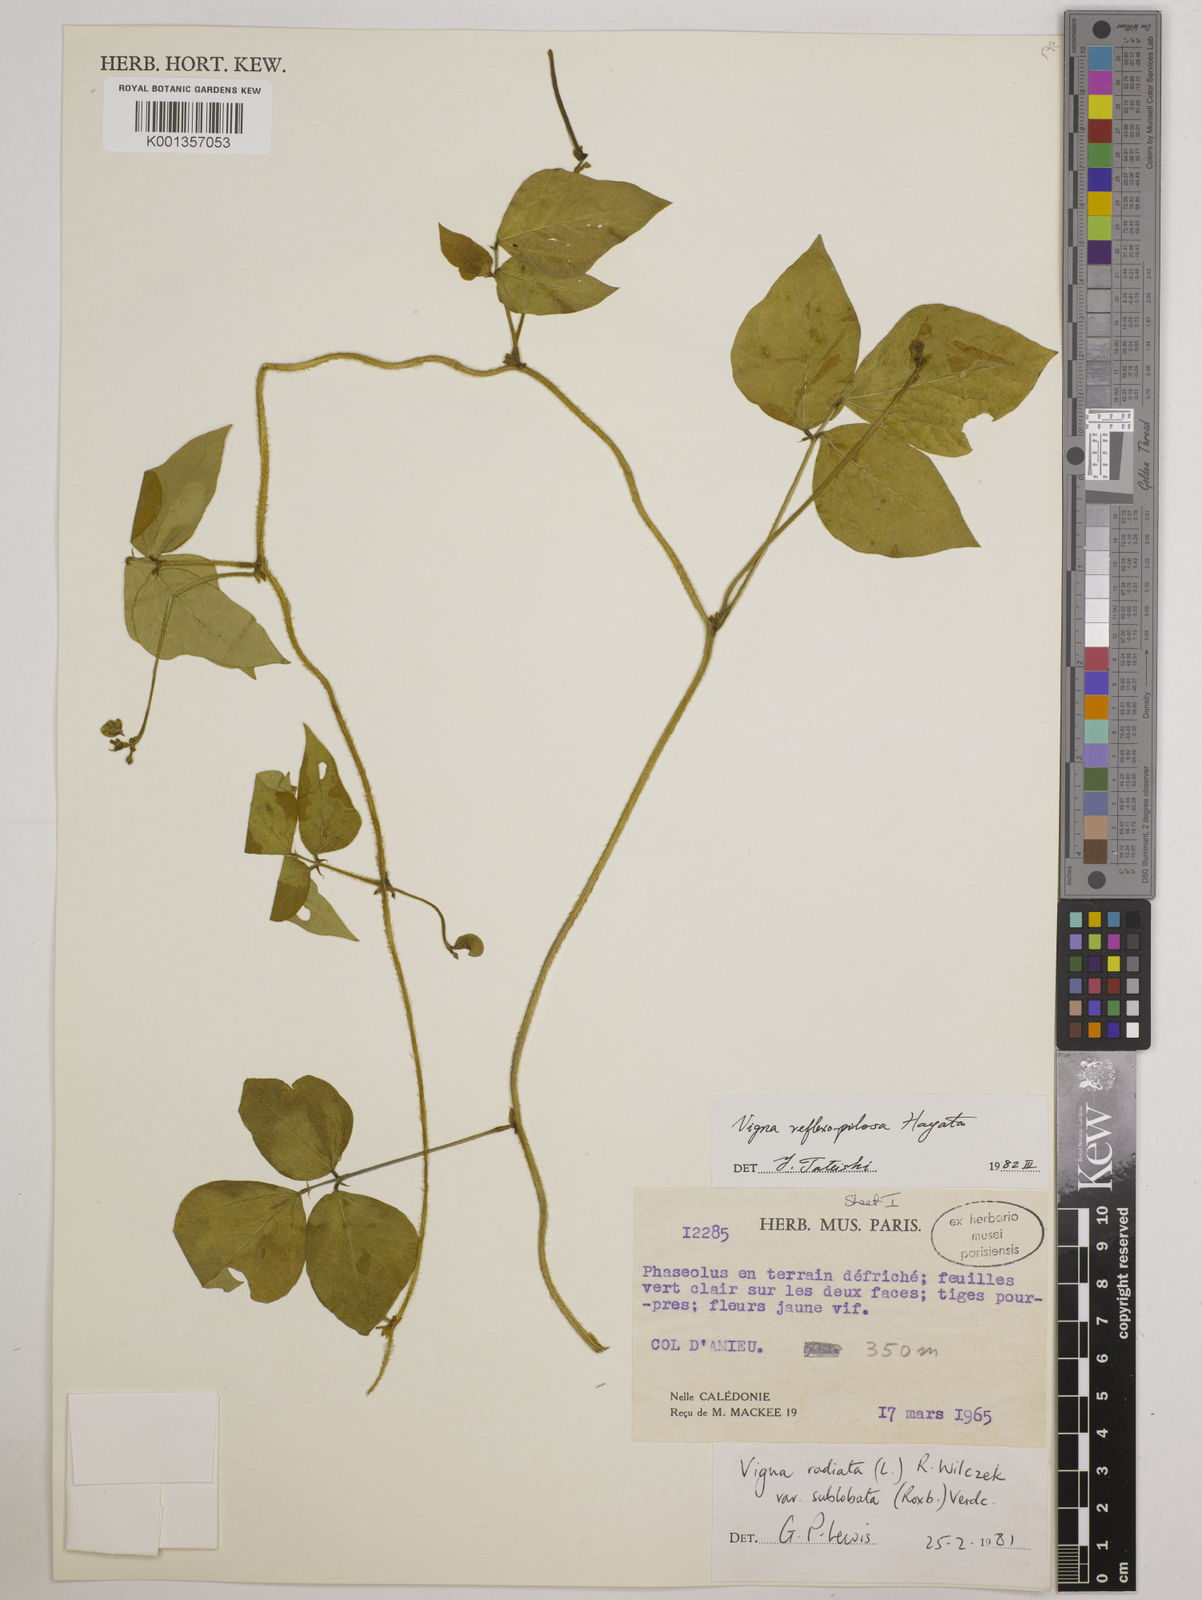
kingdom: Plantae
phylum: Tracheophyta
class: Magnoliopsida
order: Fabales
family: Fabaceae
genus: Vigna
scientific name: Vigna reflexopilosa
